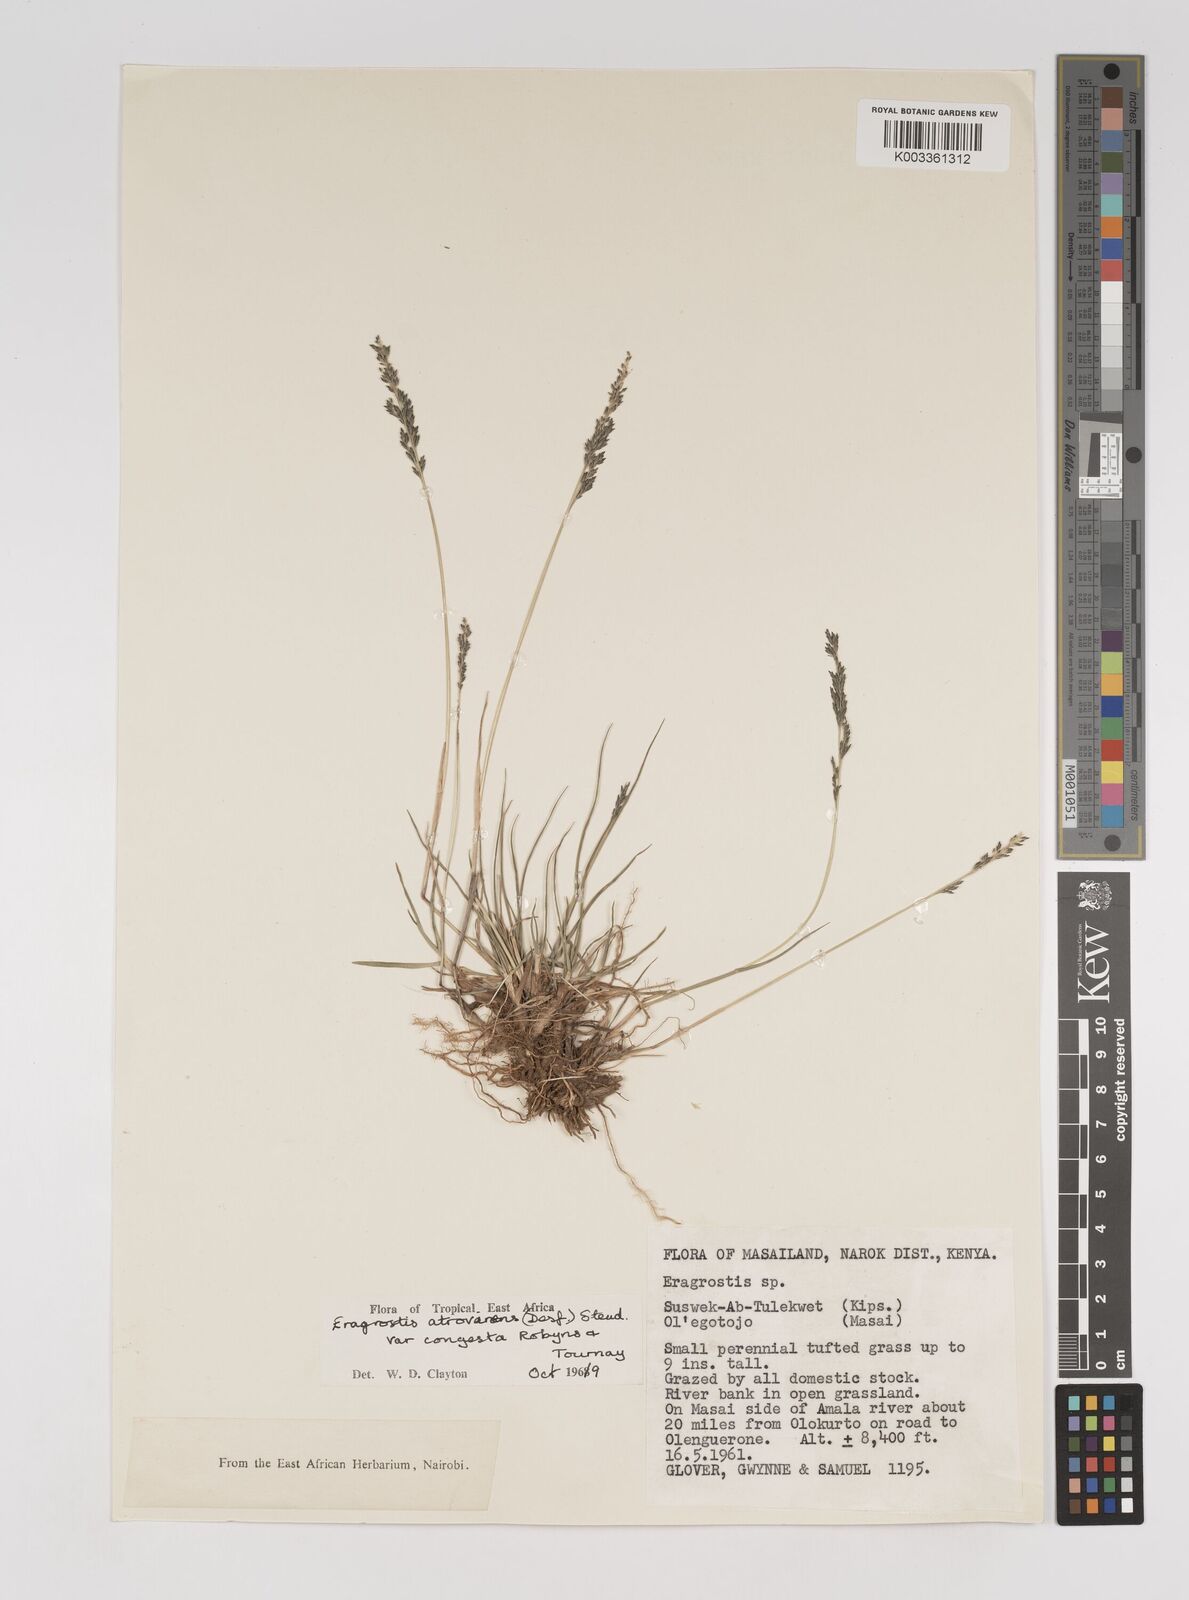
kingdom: Plantae
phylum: Tracheophyta
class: Liliopsida
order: Poales
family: Poaceae
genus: Eragrostis
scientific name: Eragrostis botryodes
